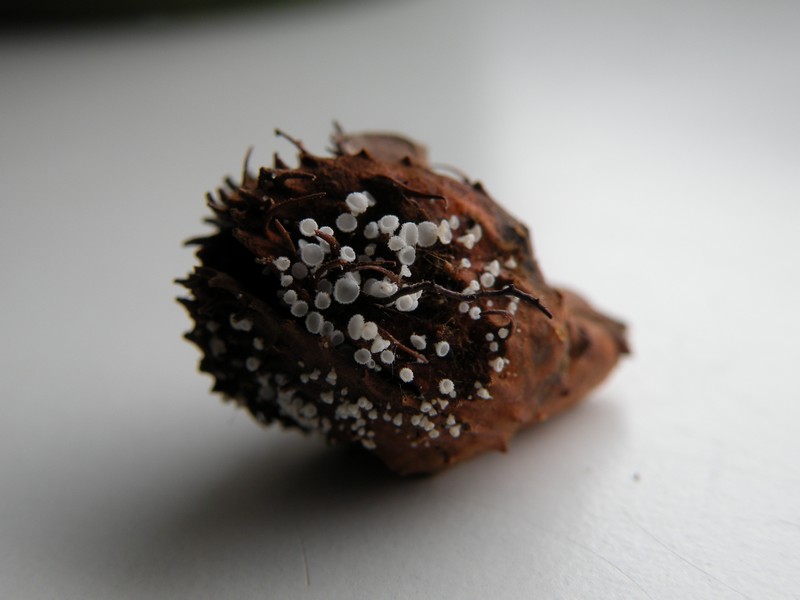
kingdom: Fungi
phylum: Ascomycota
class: Leotiomycetes
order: Helotiales
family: Lachnaceae
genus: Lachnum
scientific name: Lachnum virgineum
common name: jomfru-frynseskive
